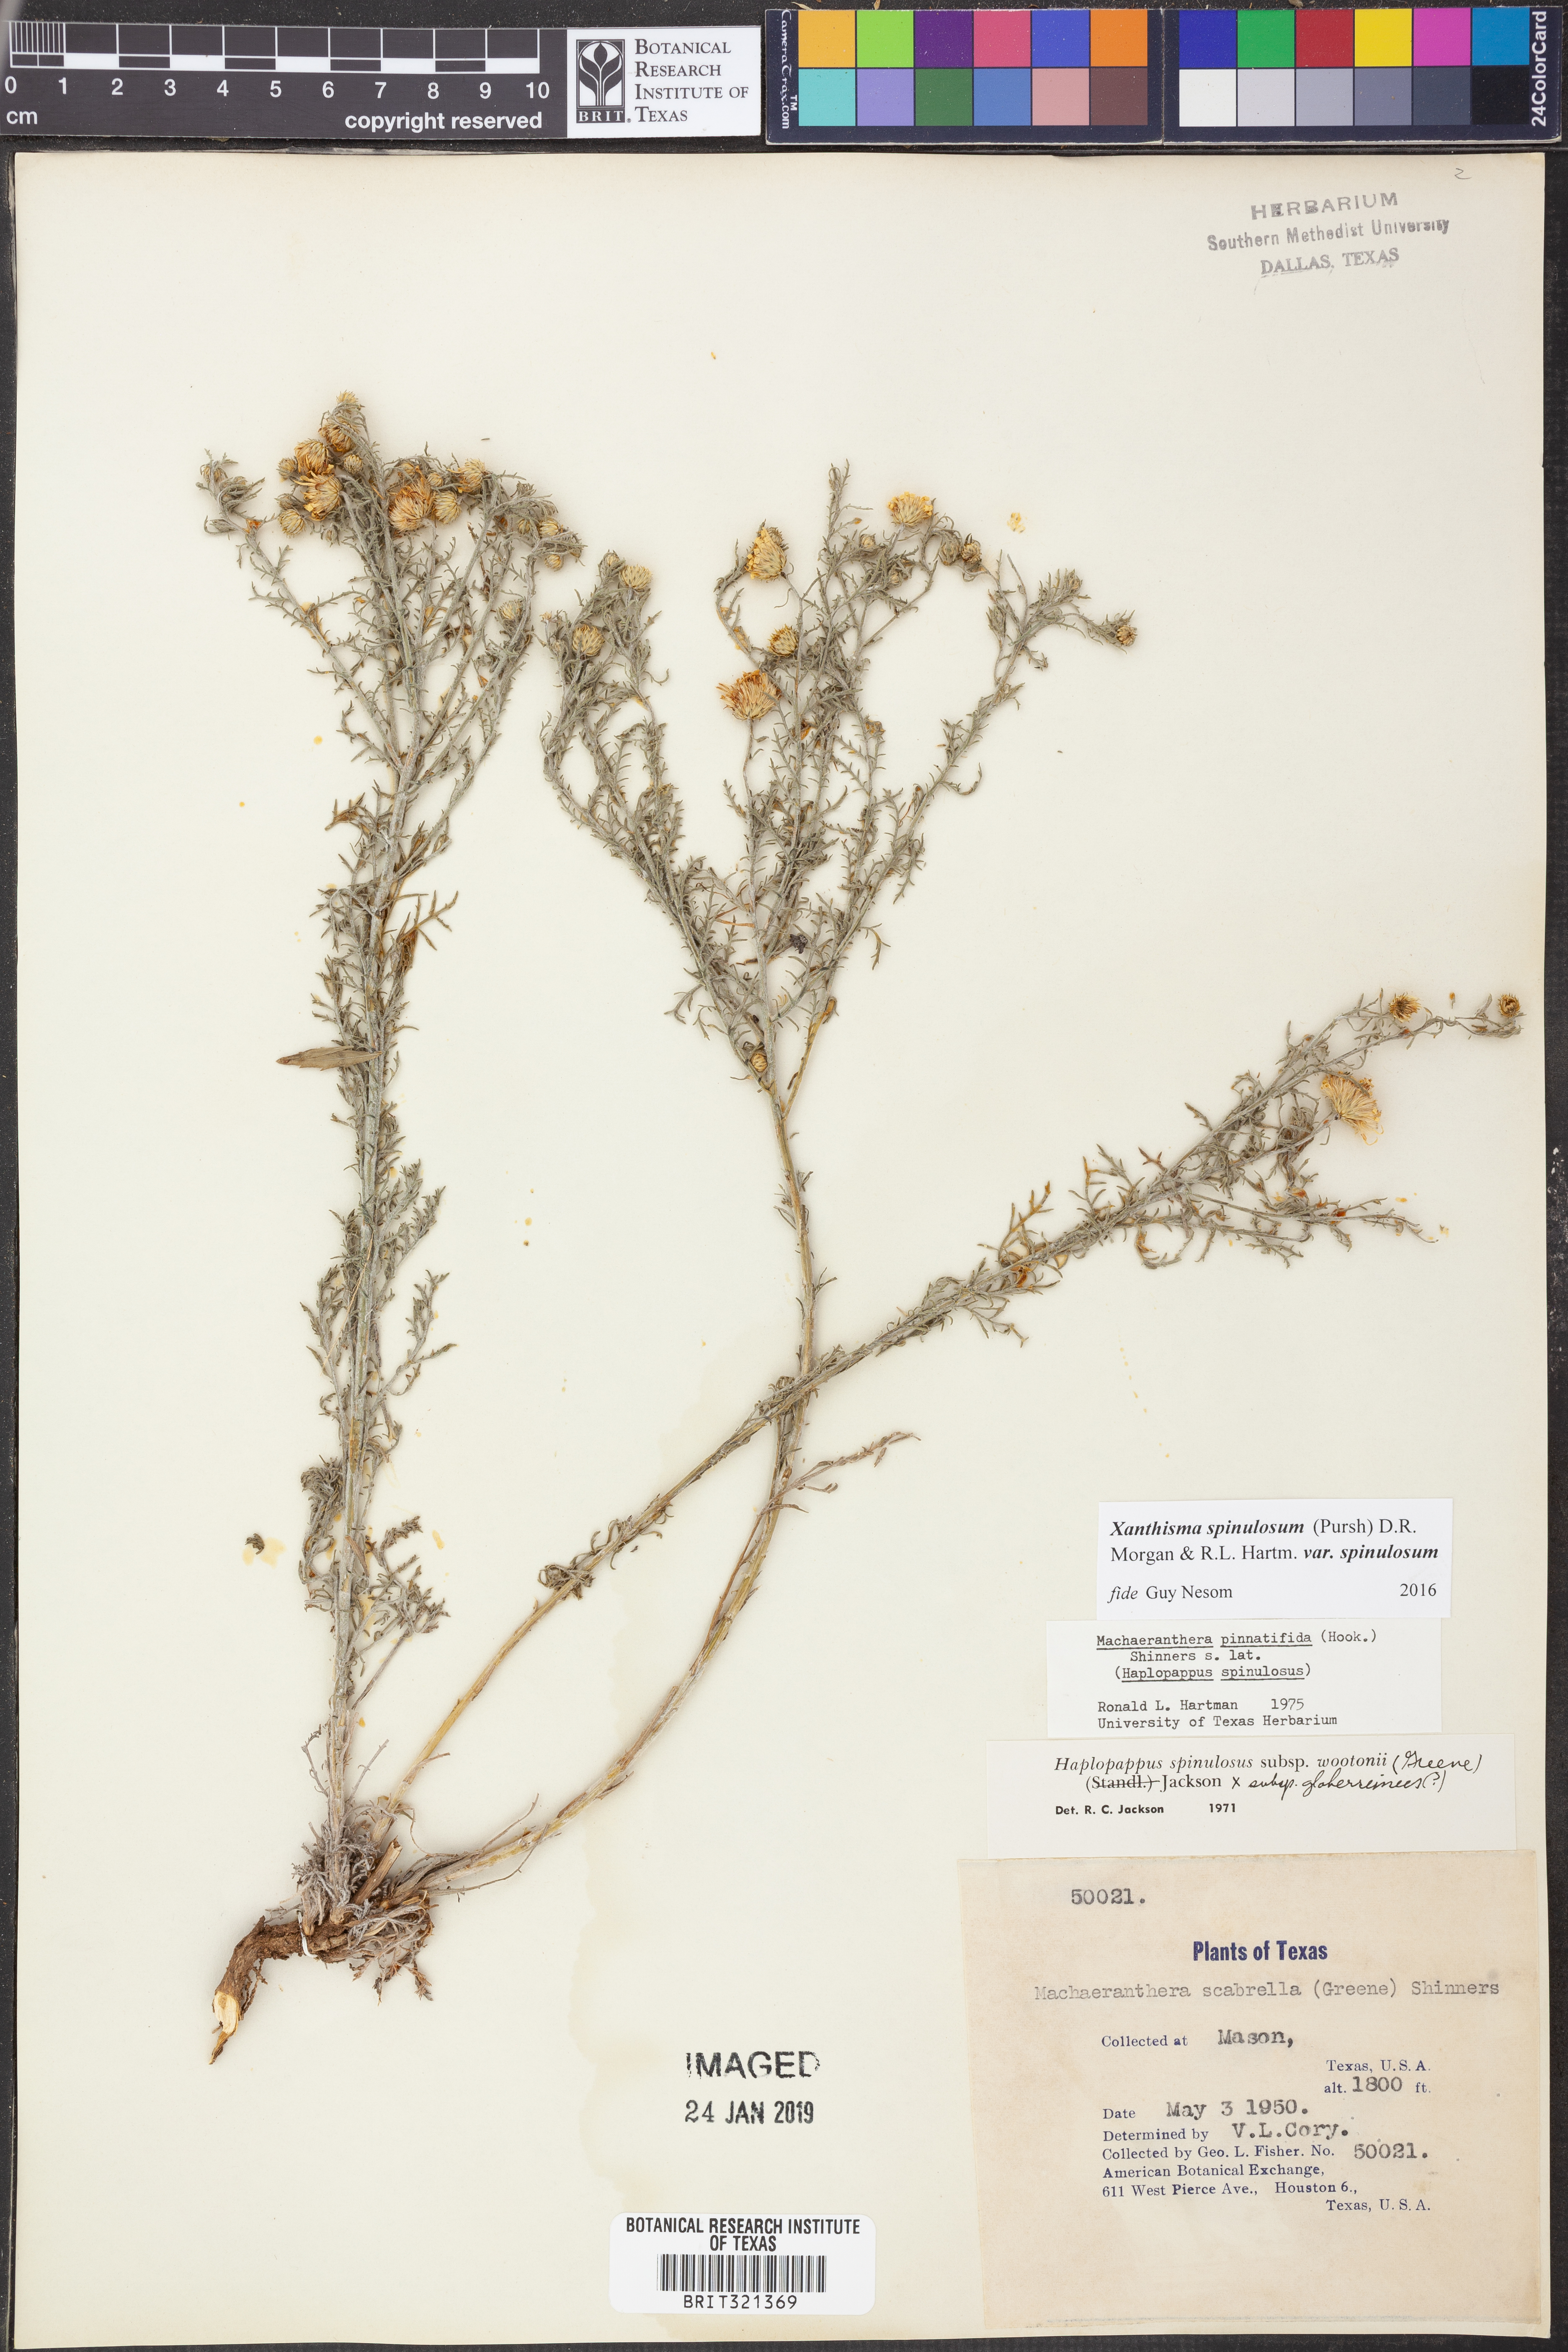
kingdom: Plantae
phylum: Tracheophyta
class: Magnoliopsida
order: Asterales
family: Asteraceae
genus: Xanthisma
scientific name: Xanthisma spinulosum
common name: Spiny goldenweed
